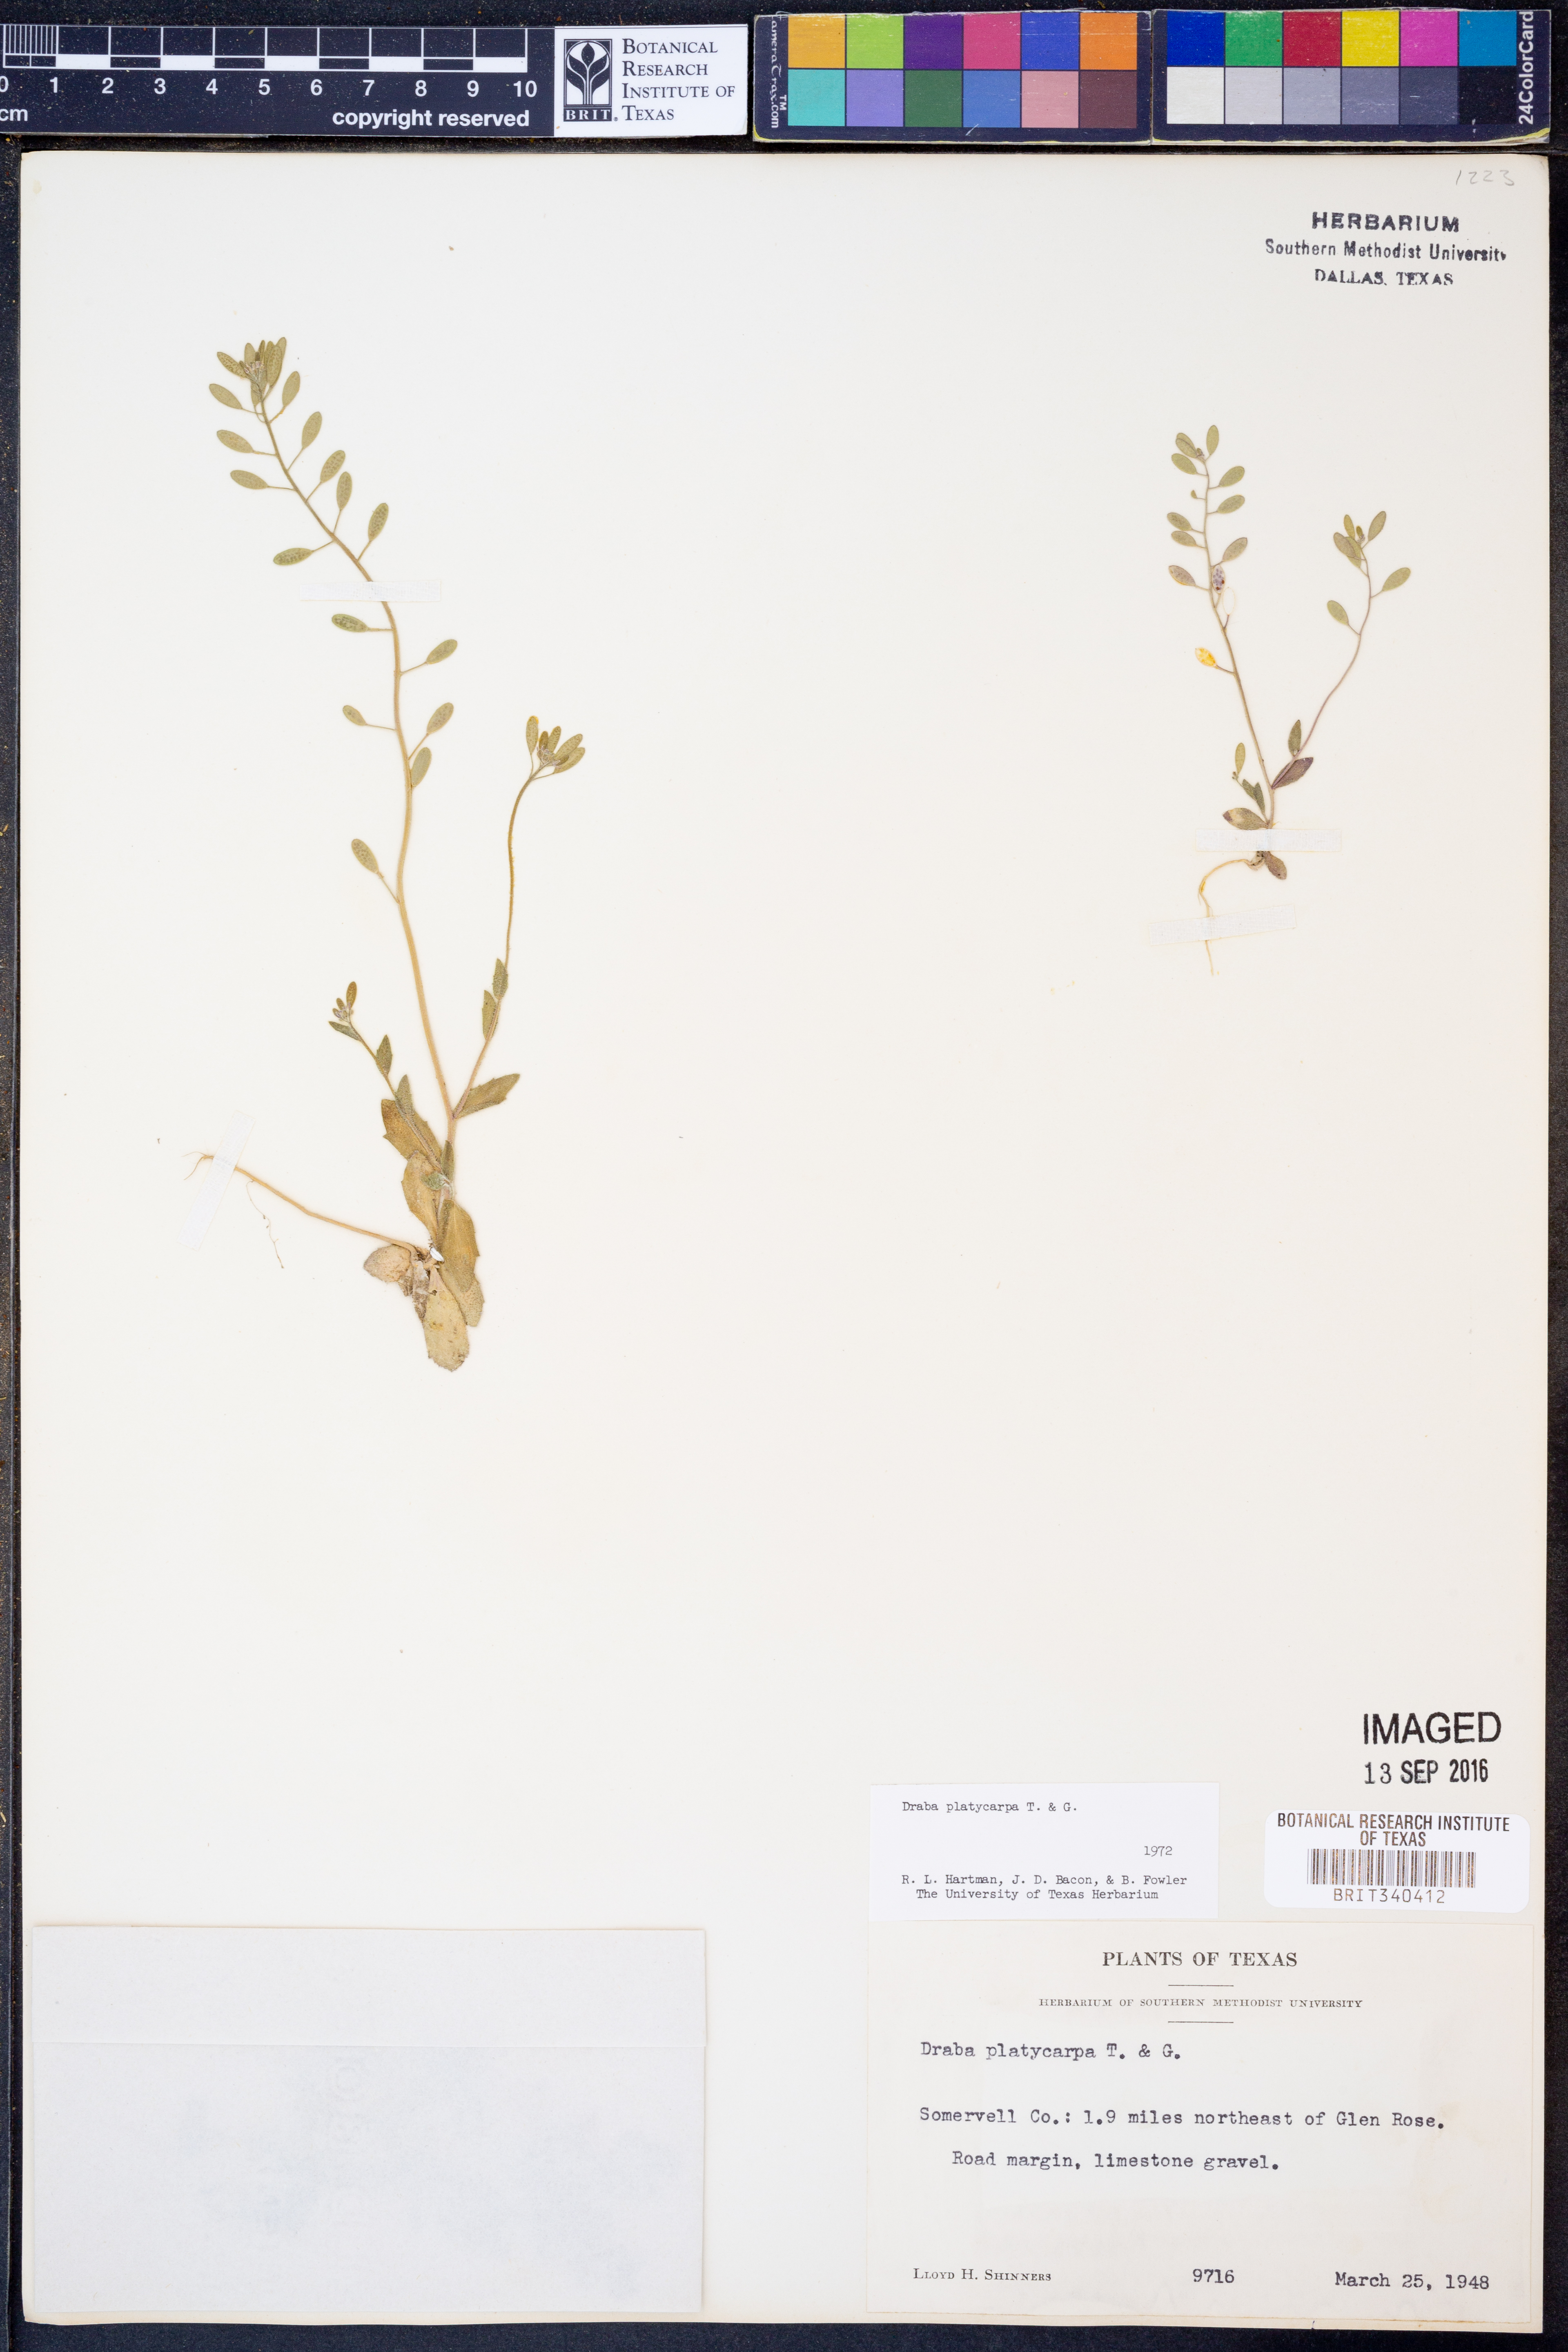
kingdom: Plantae
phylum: Tracheophyta
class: Magnoliopsida
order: Brassicales
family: Brassicaceae
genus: Tomostima
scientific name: Tomostima platycarpa
